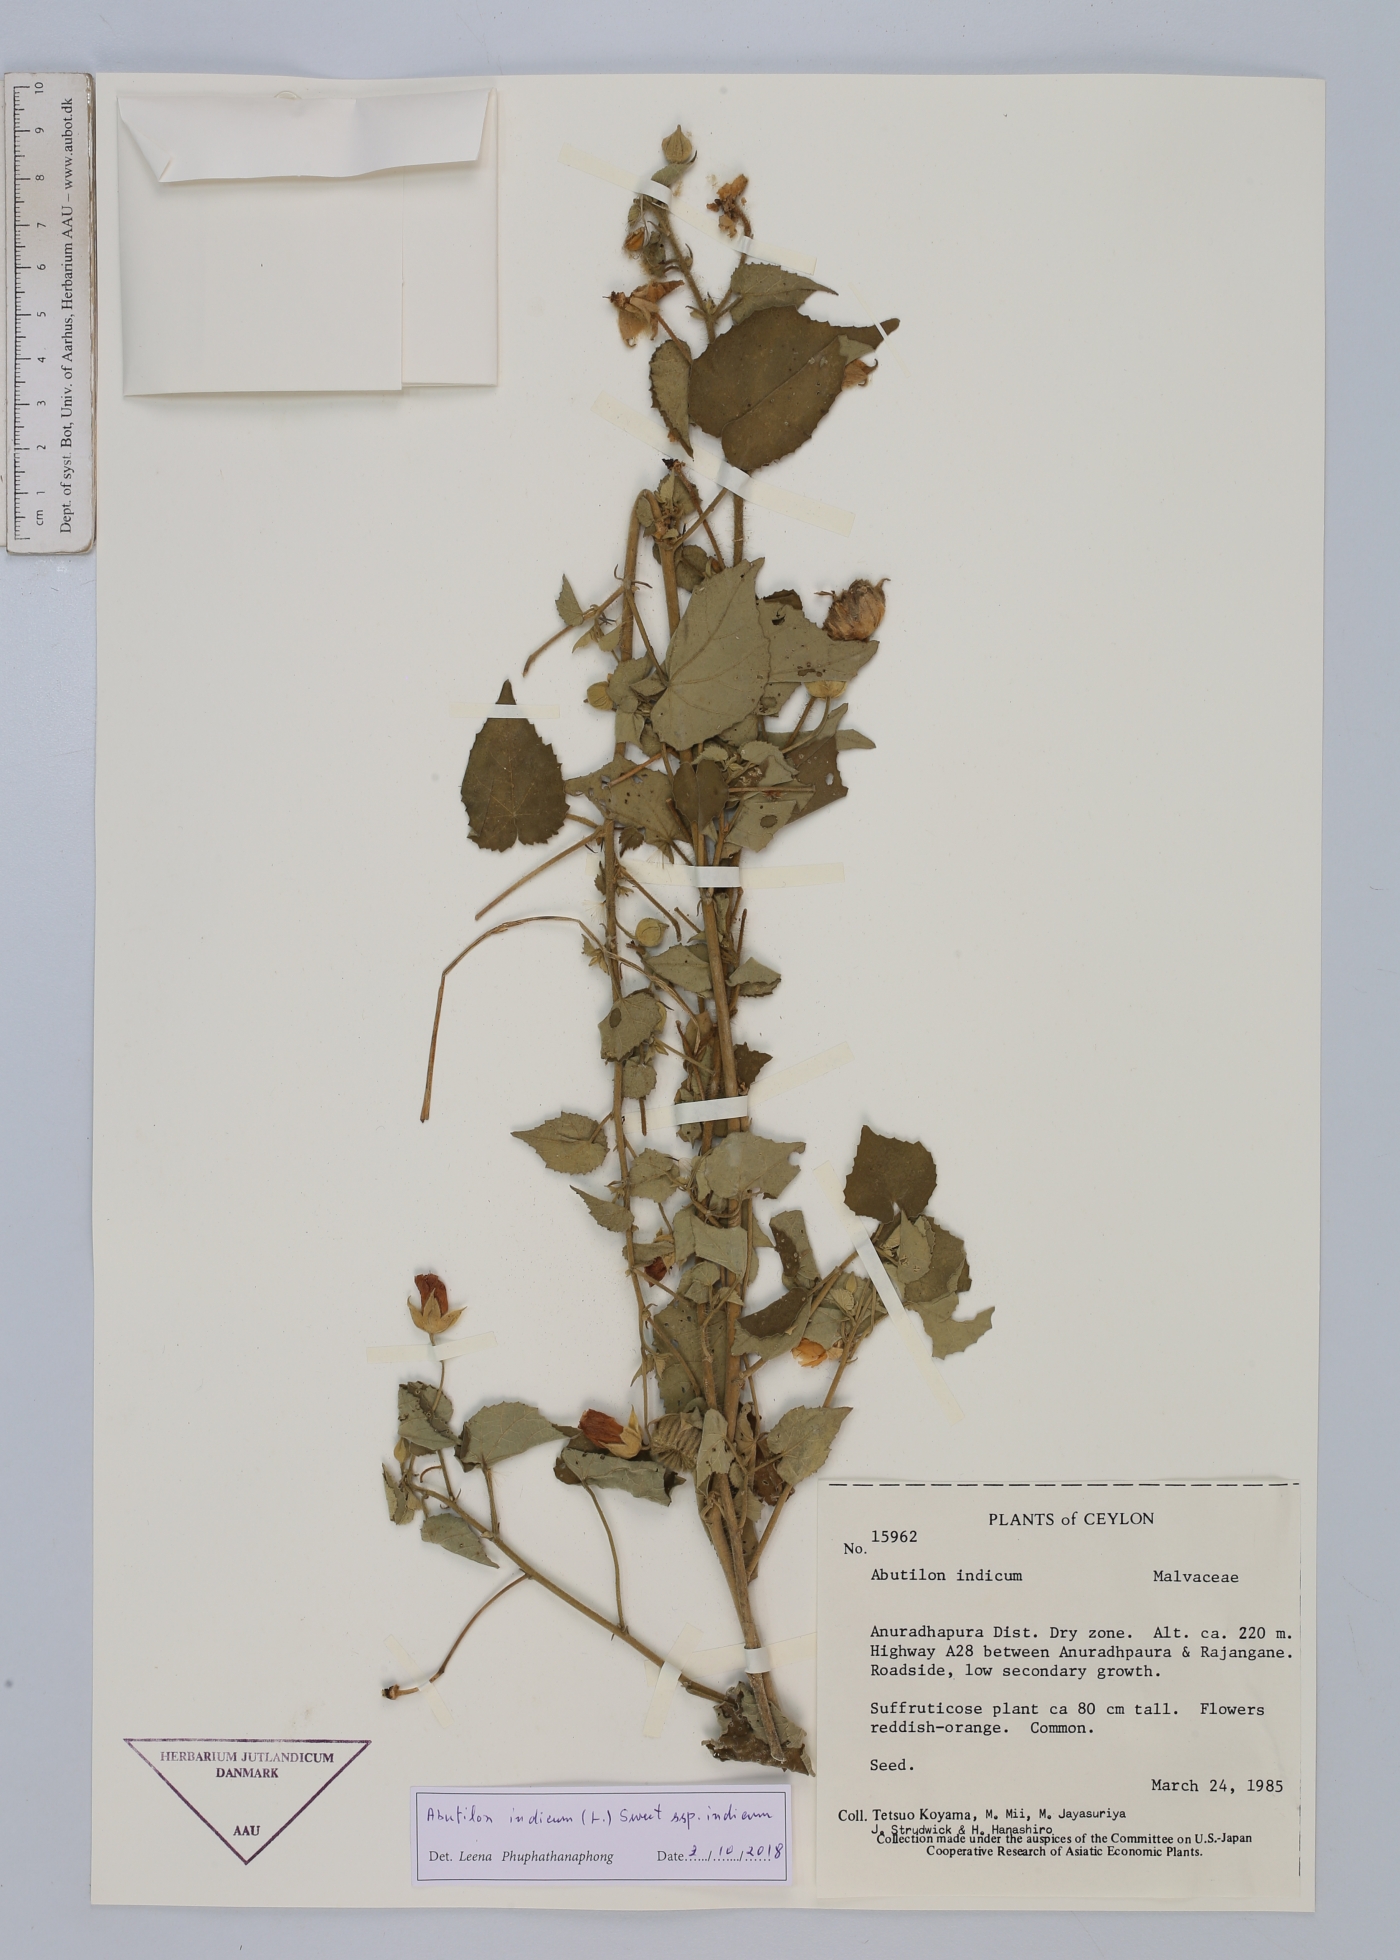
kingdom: Plantae
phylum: Tracheophyta
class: Magnoliopsida
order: Malvales
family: Malvaceae
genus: Abutilon
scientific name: Abutilon indicum
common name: Indian abutilon
